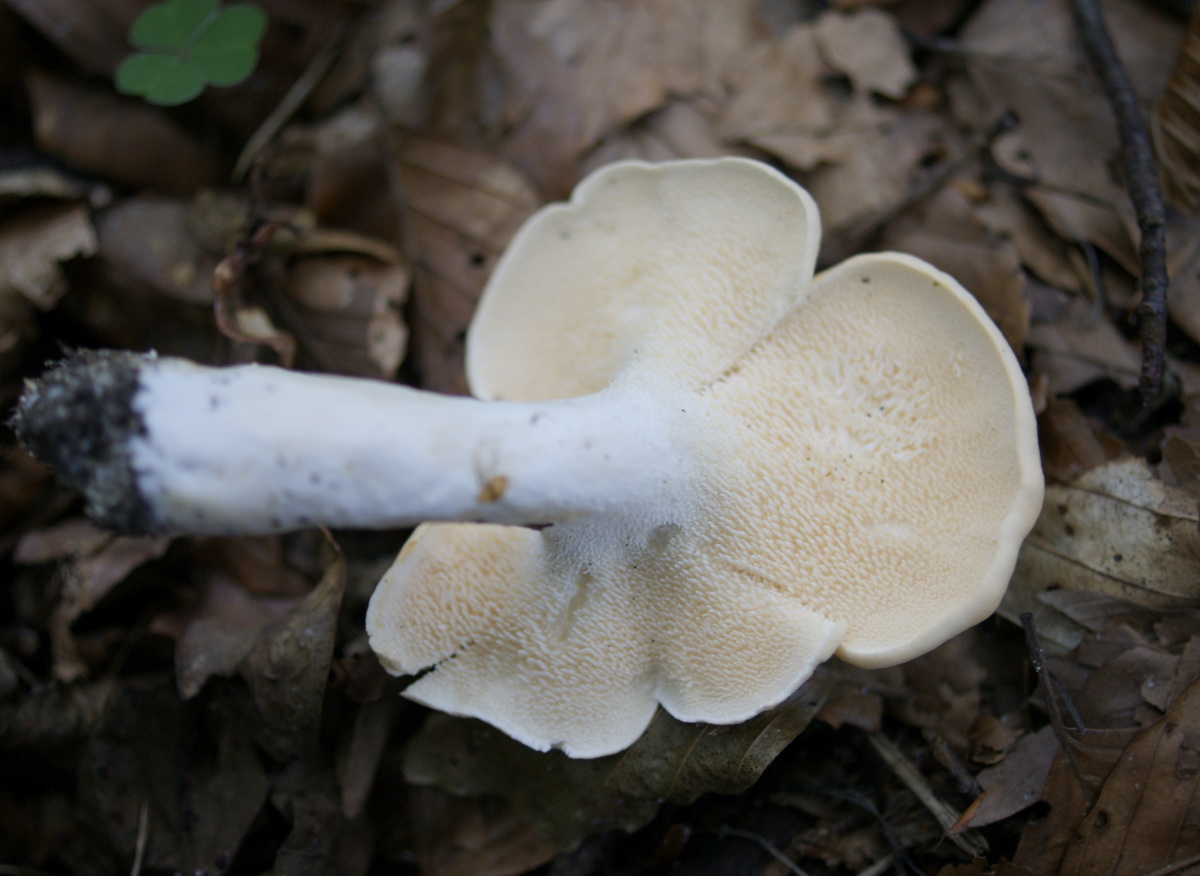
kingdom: Fungi
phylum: Basidiomycota
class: Agaricomycetes
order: Cantharellales
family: Hydnaceae
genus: Hydnum
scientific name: Hydnum repandum
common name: almindelig pigsvamp
